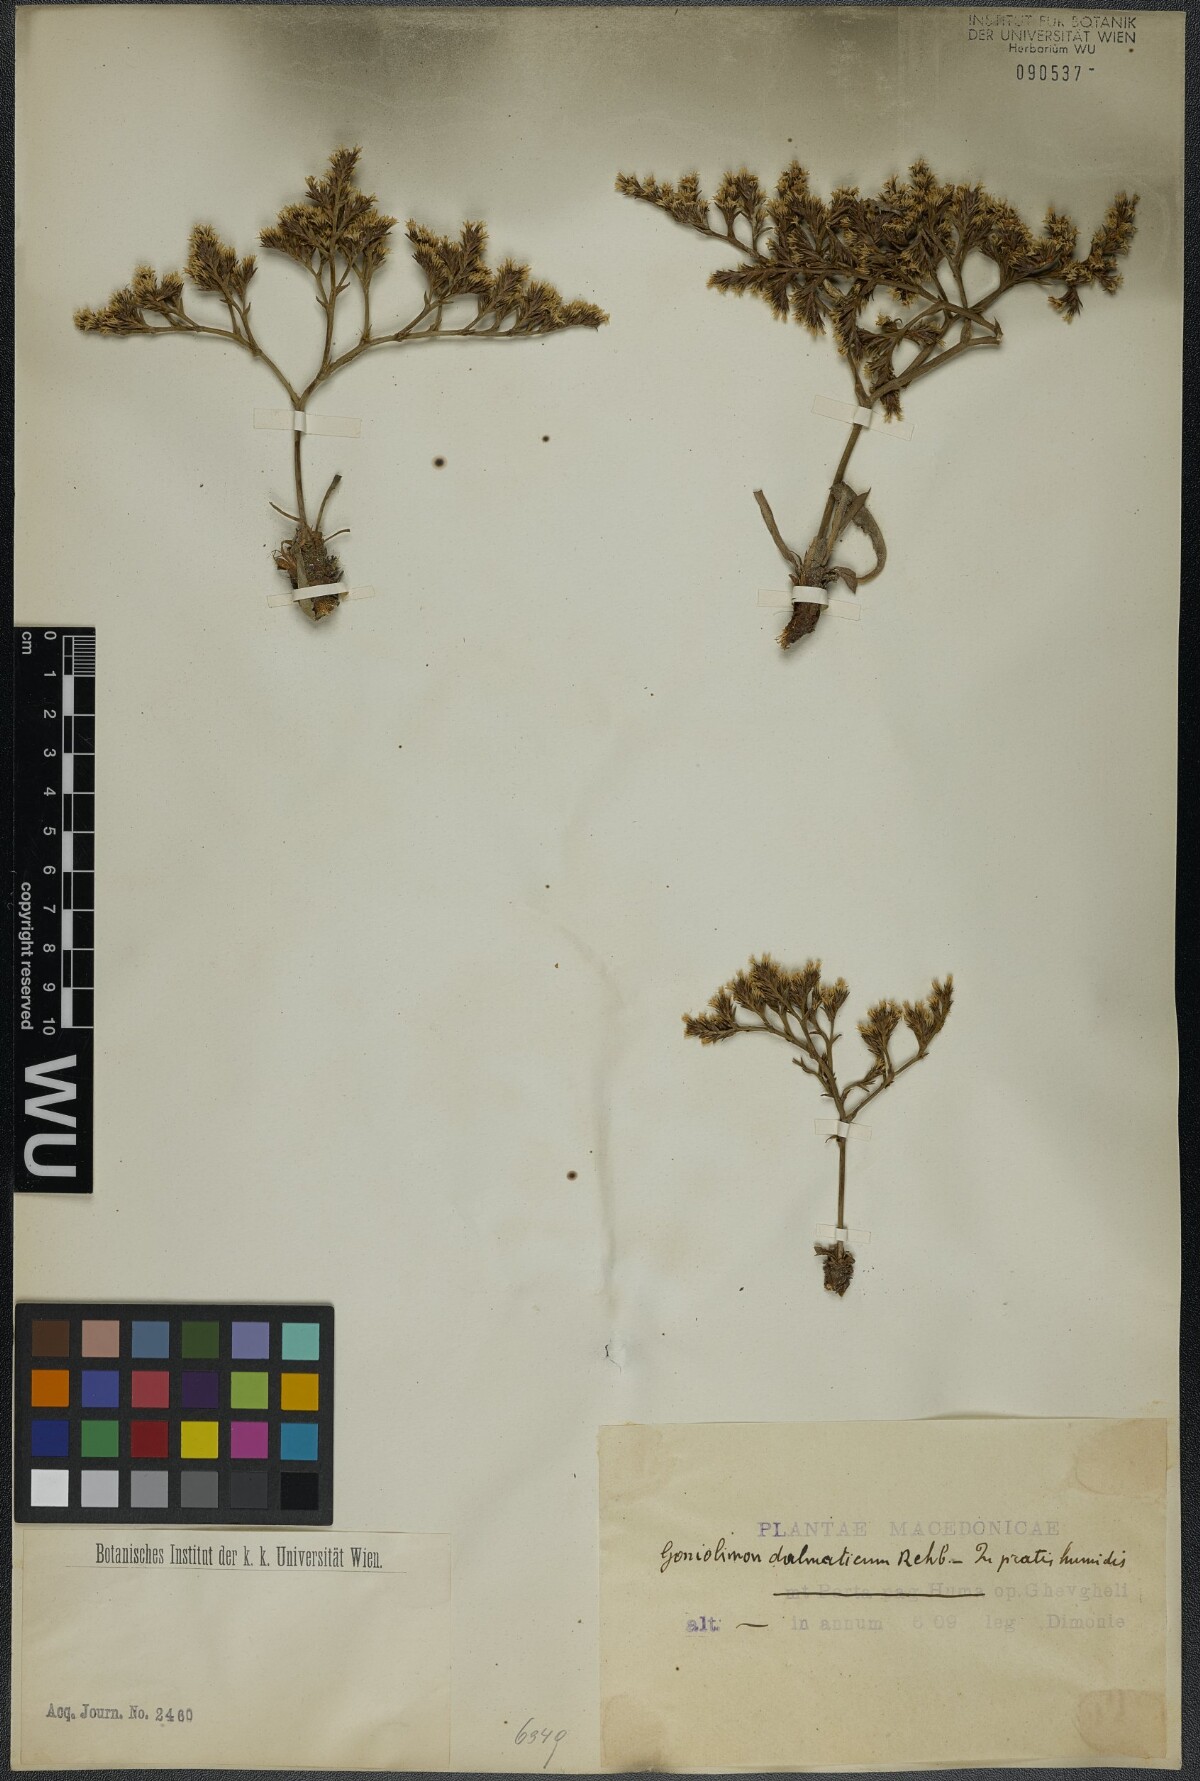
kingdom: Plantae
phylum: Tracheophyta
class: Magnoliopsida
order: Caryophyllales
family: Plumbaginaceae
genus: Goniolimon
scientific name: Goniolimon dalmaticum
